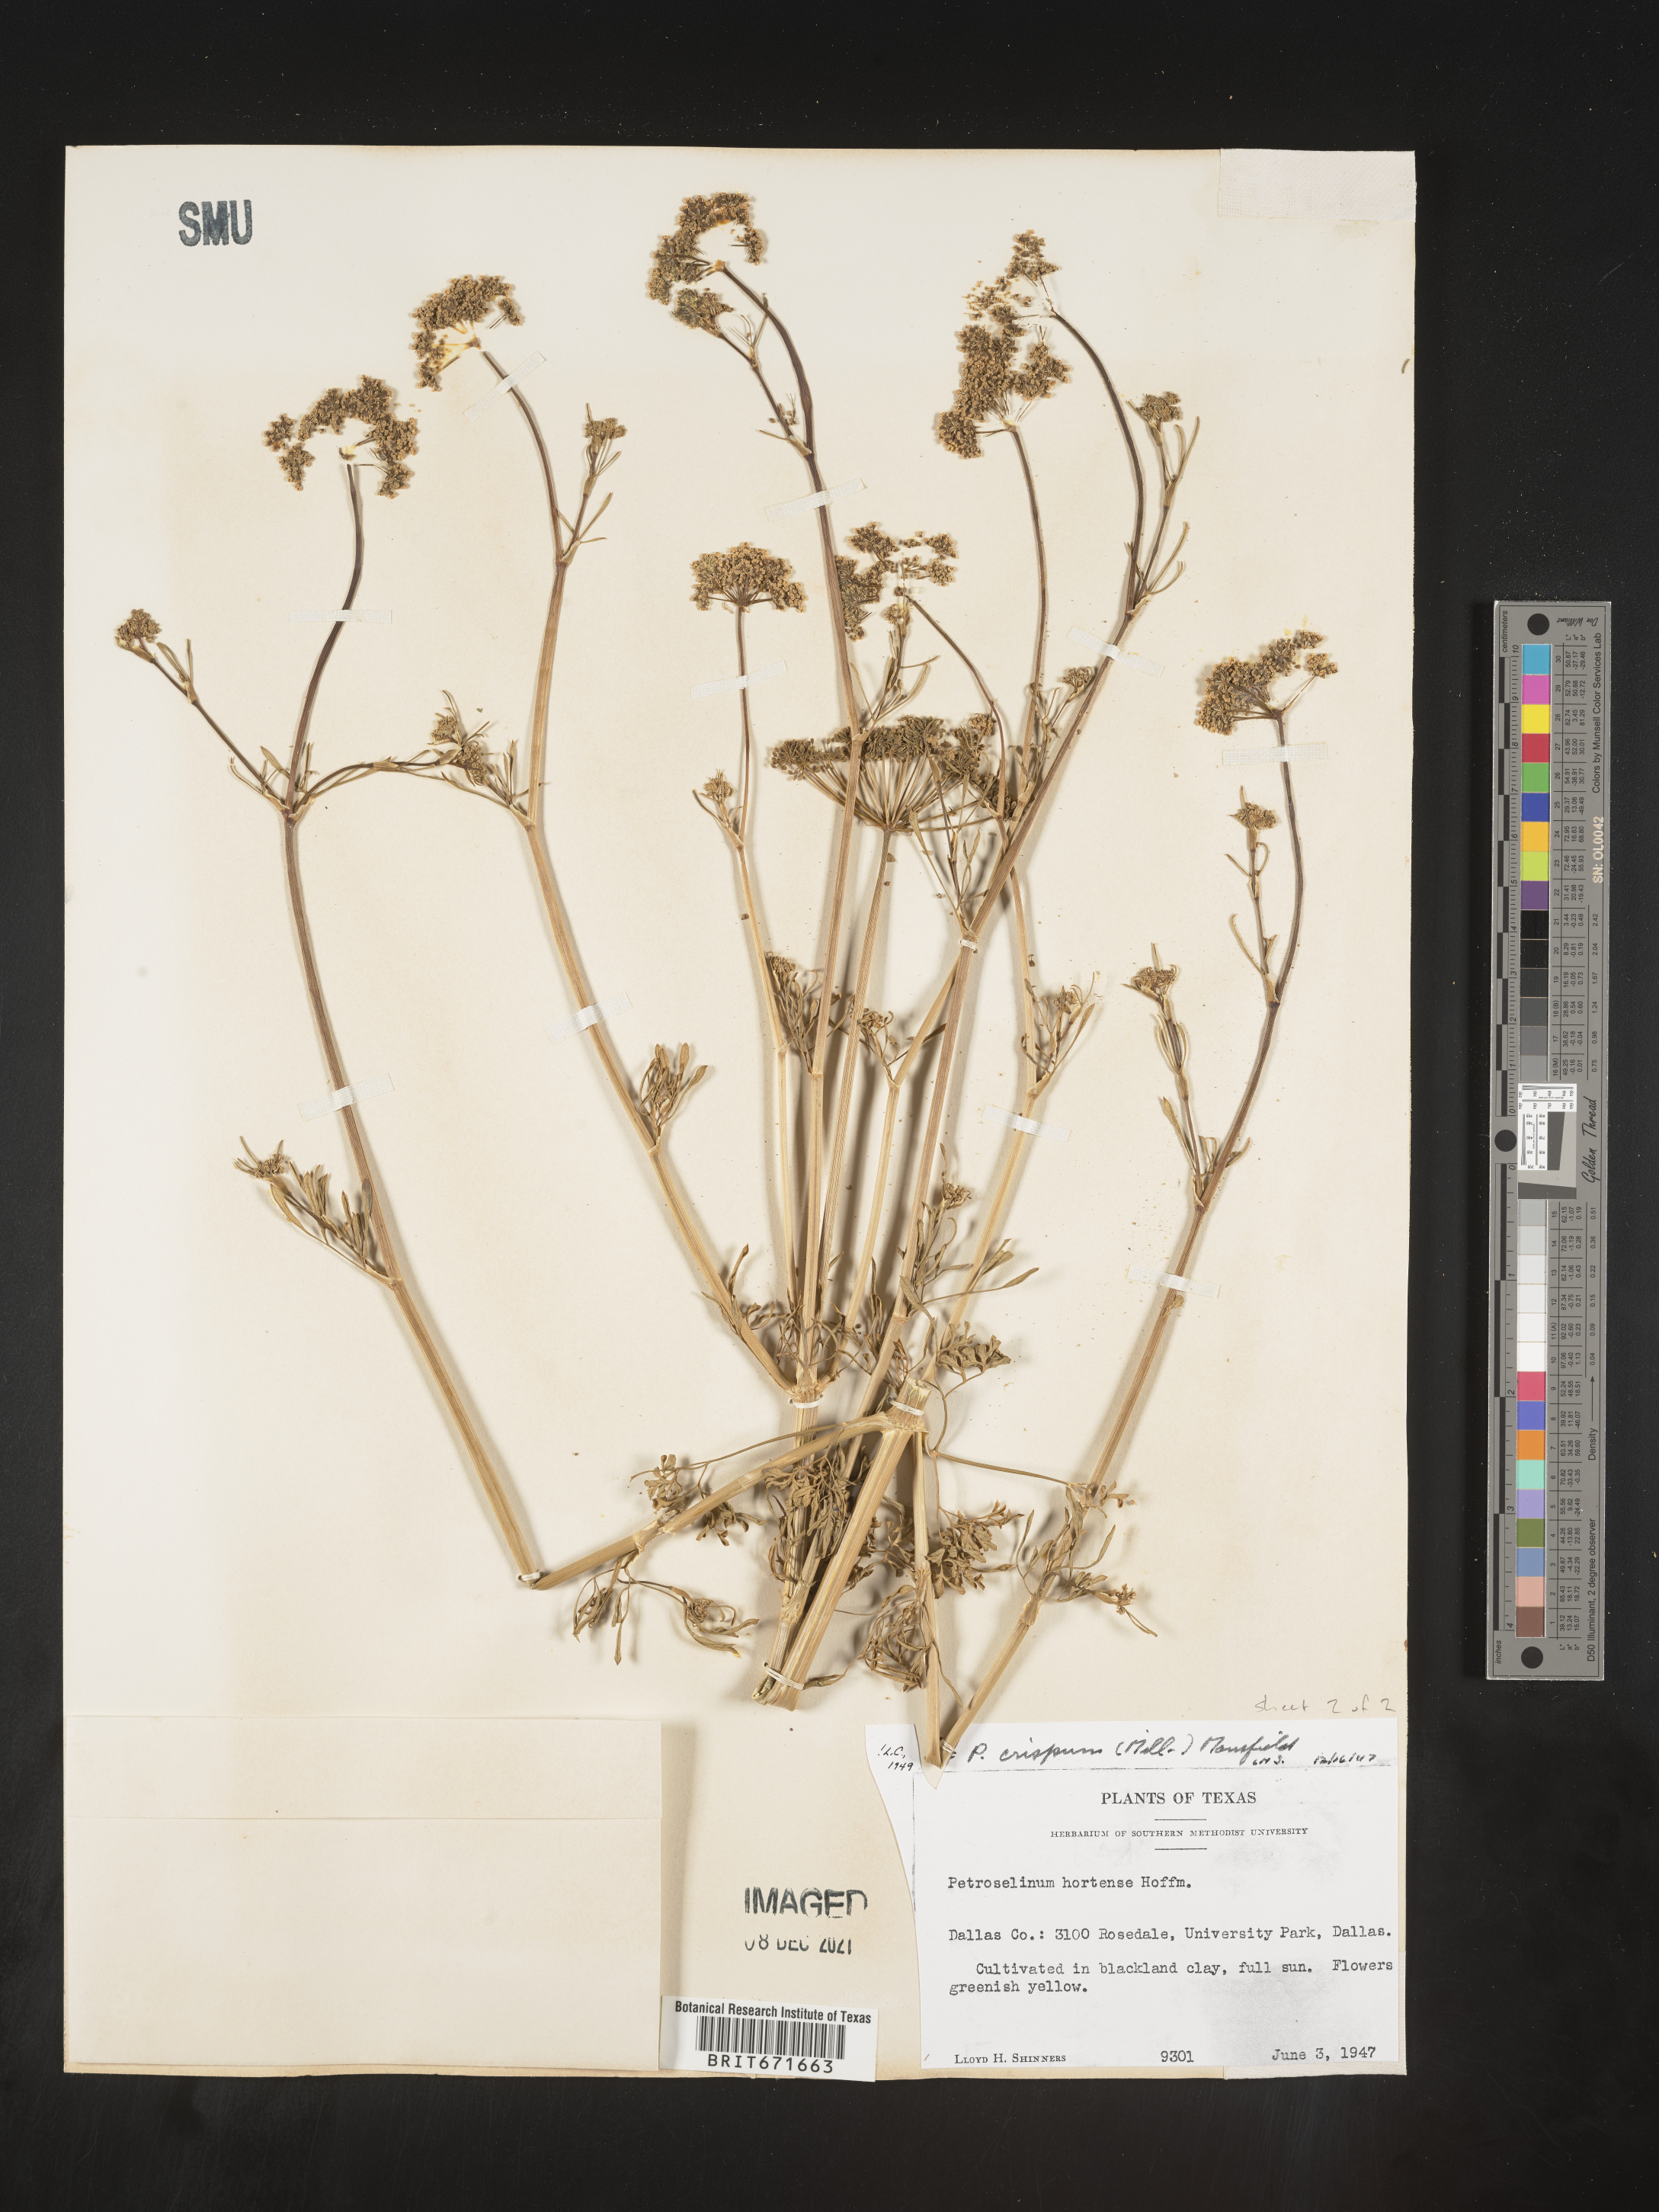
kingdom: Plantae
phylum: Tracheophyta
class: Magnoliopsida
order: Apiales
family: Apiaceae
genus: Petroselinum
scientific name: Petroselinum
